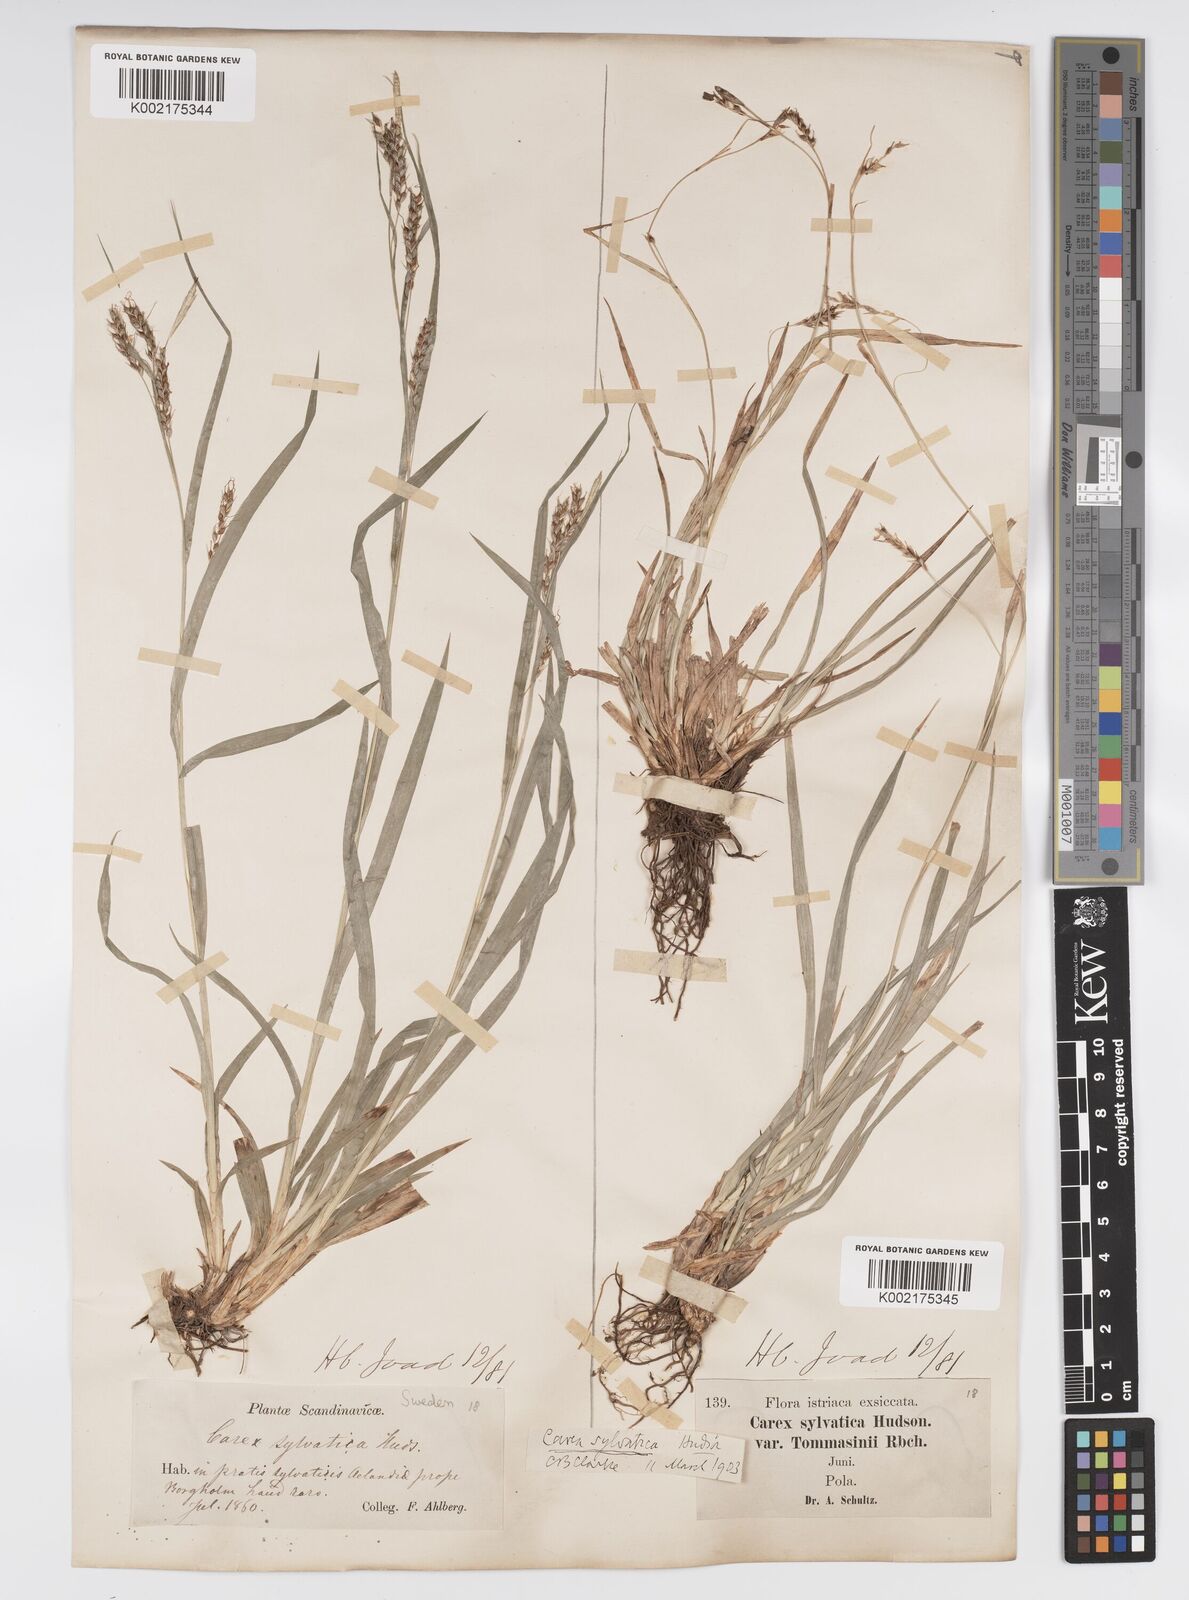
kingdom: Plantae
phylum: Tracheophyta
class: Liliopsida
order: Poales
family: Cyperaceae
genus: Carex
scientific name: Carex sylvatica
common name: Wood-sedge
